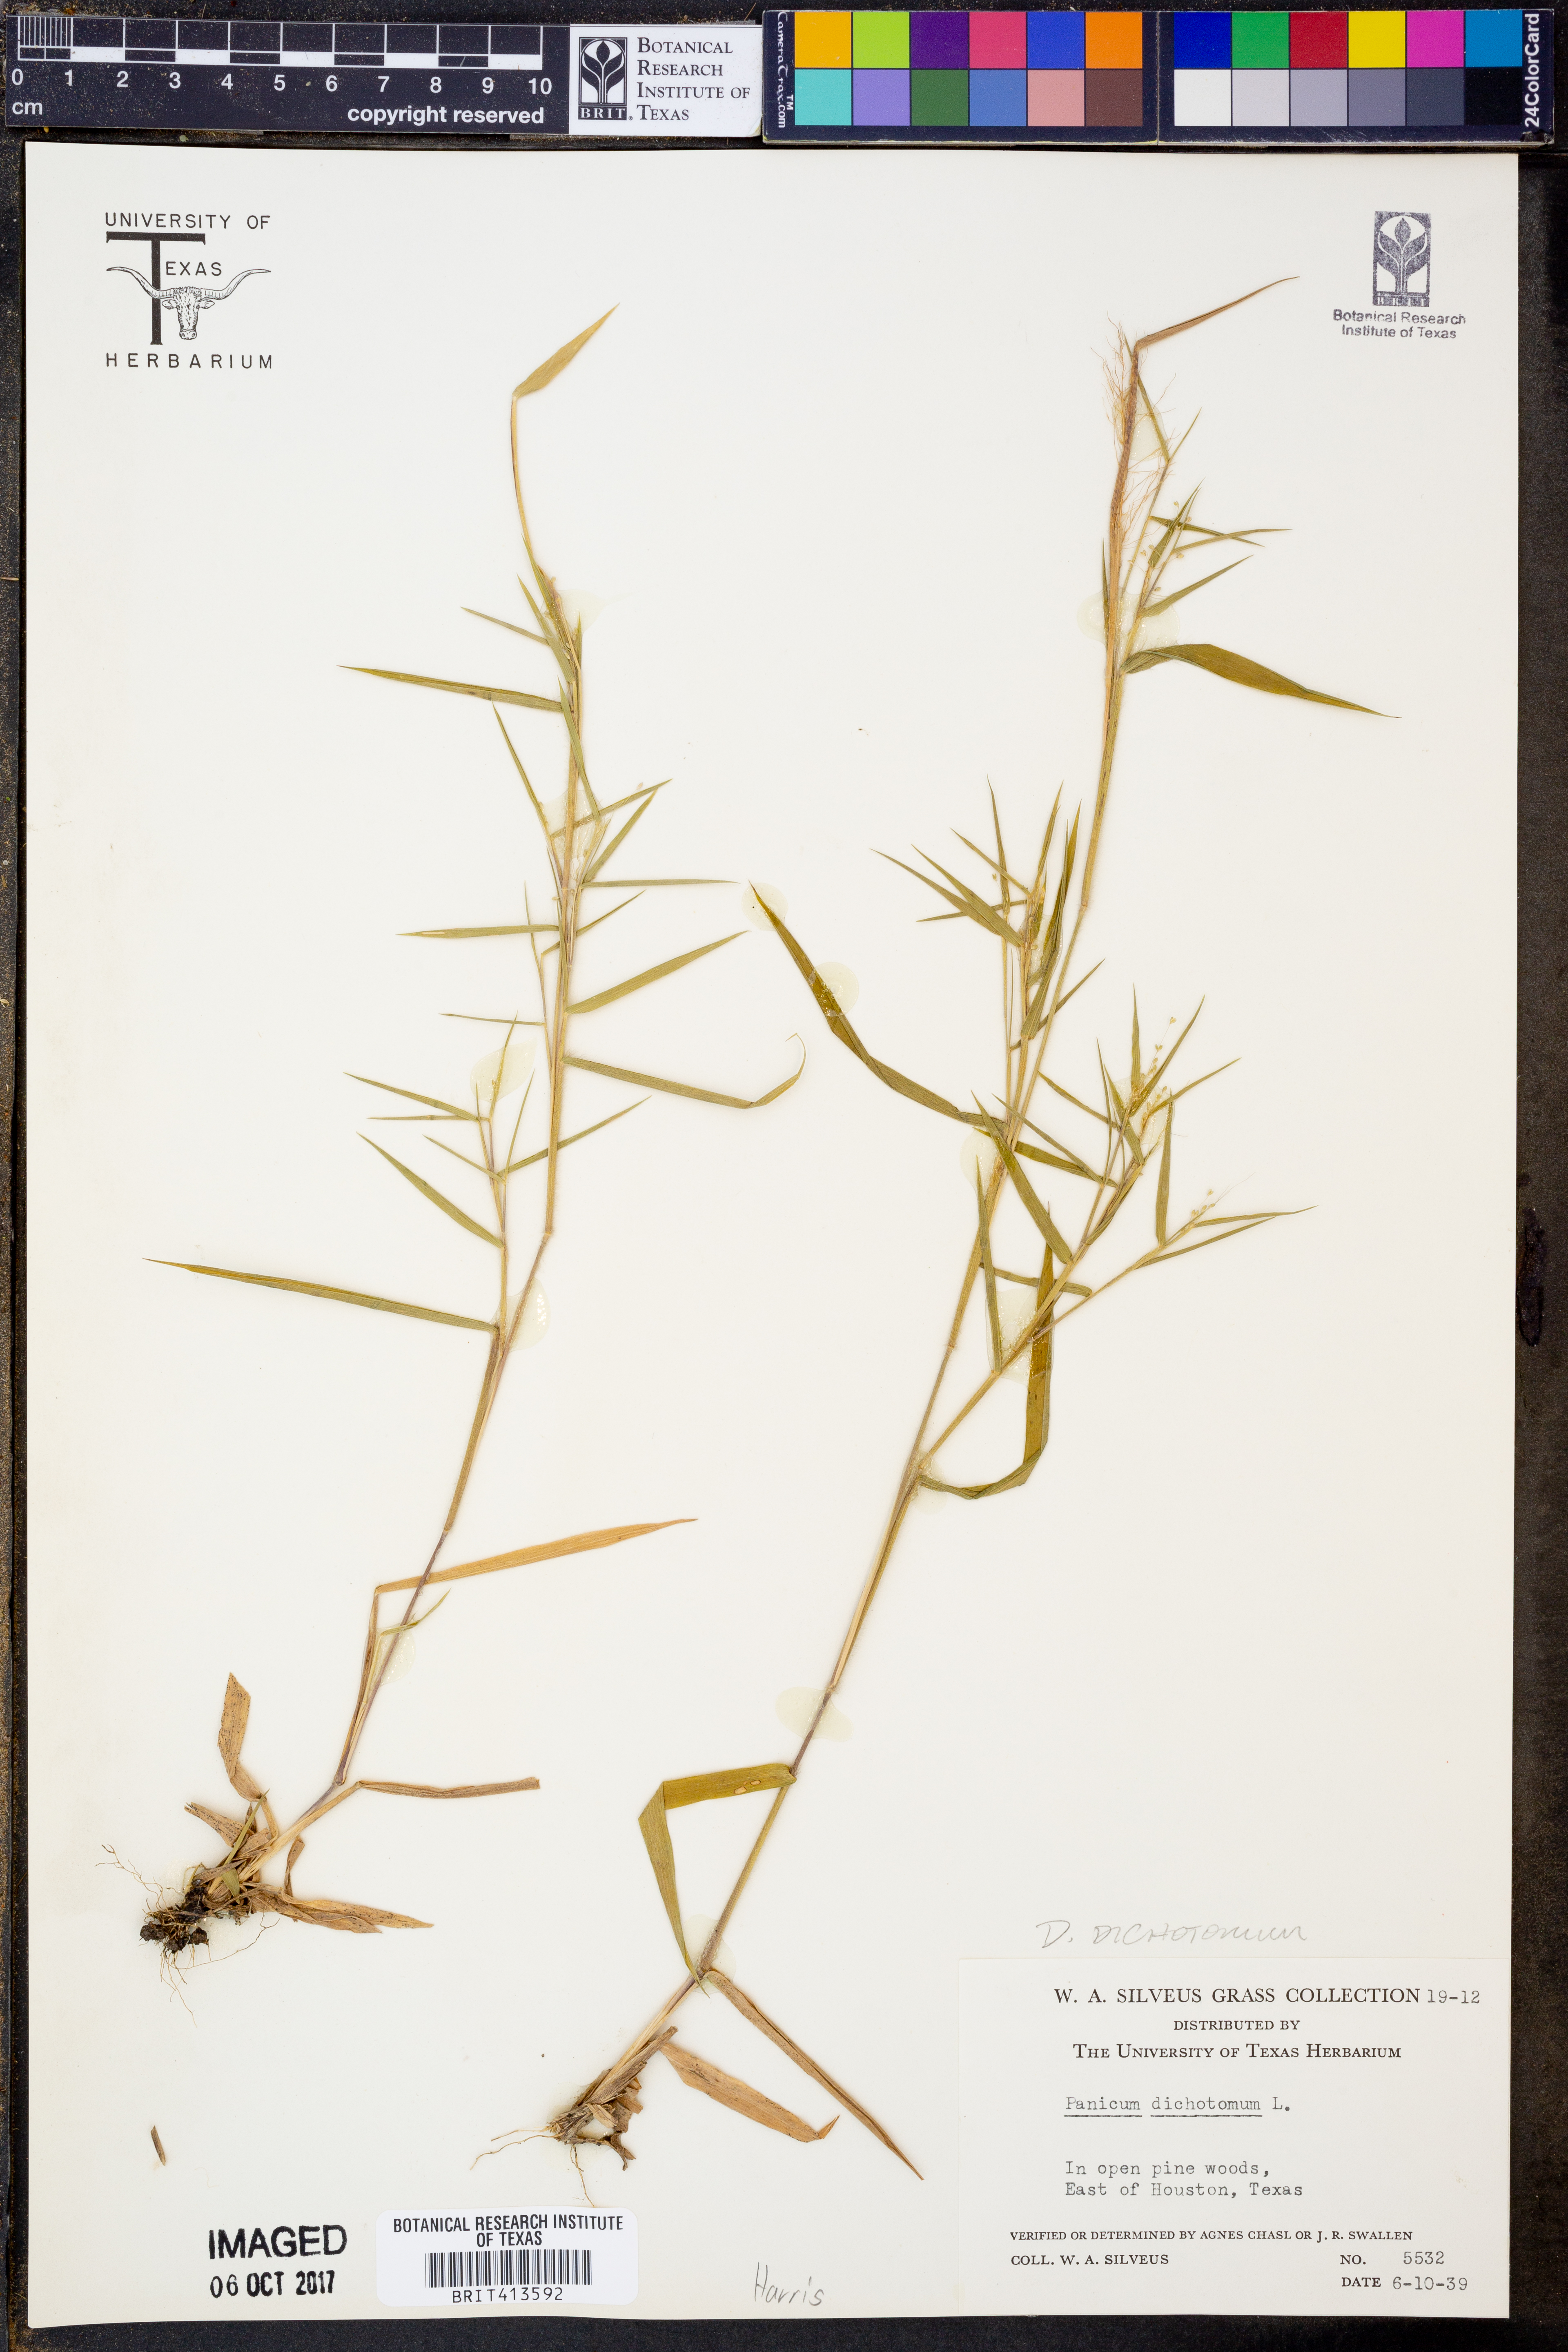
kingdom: Plantae
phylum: Tracheophyta
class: Liliopsida
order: Poales
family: Poaceae
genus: Dichanthelium
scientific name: Dichanthelium dichotomum
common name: Cypress panicgrass
